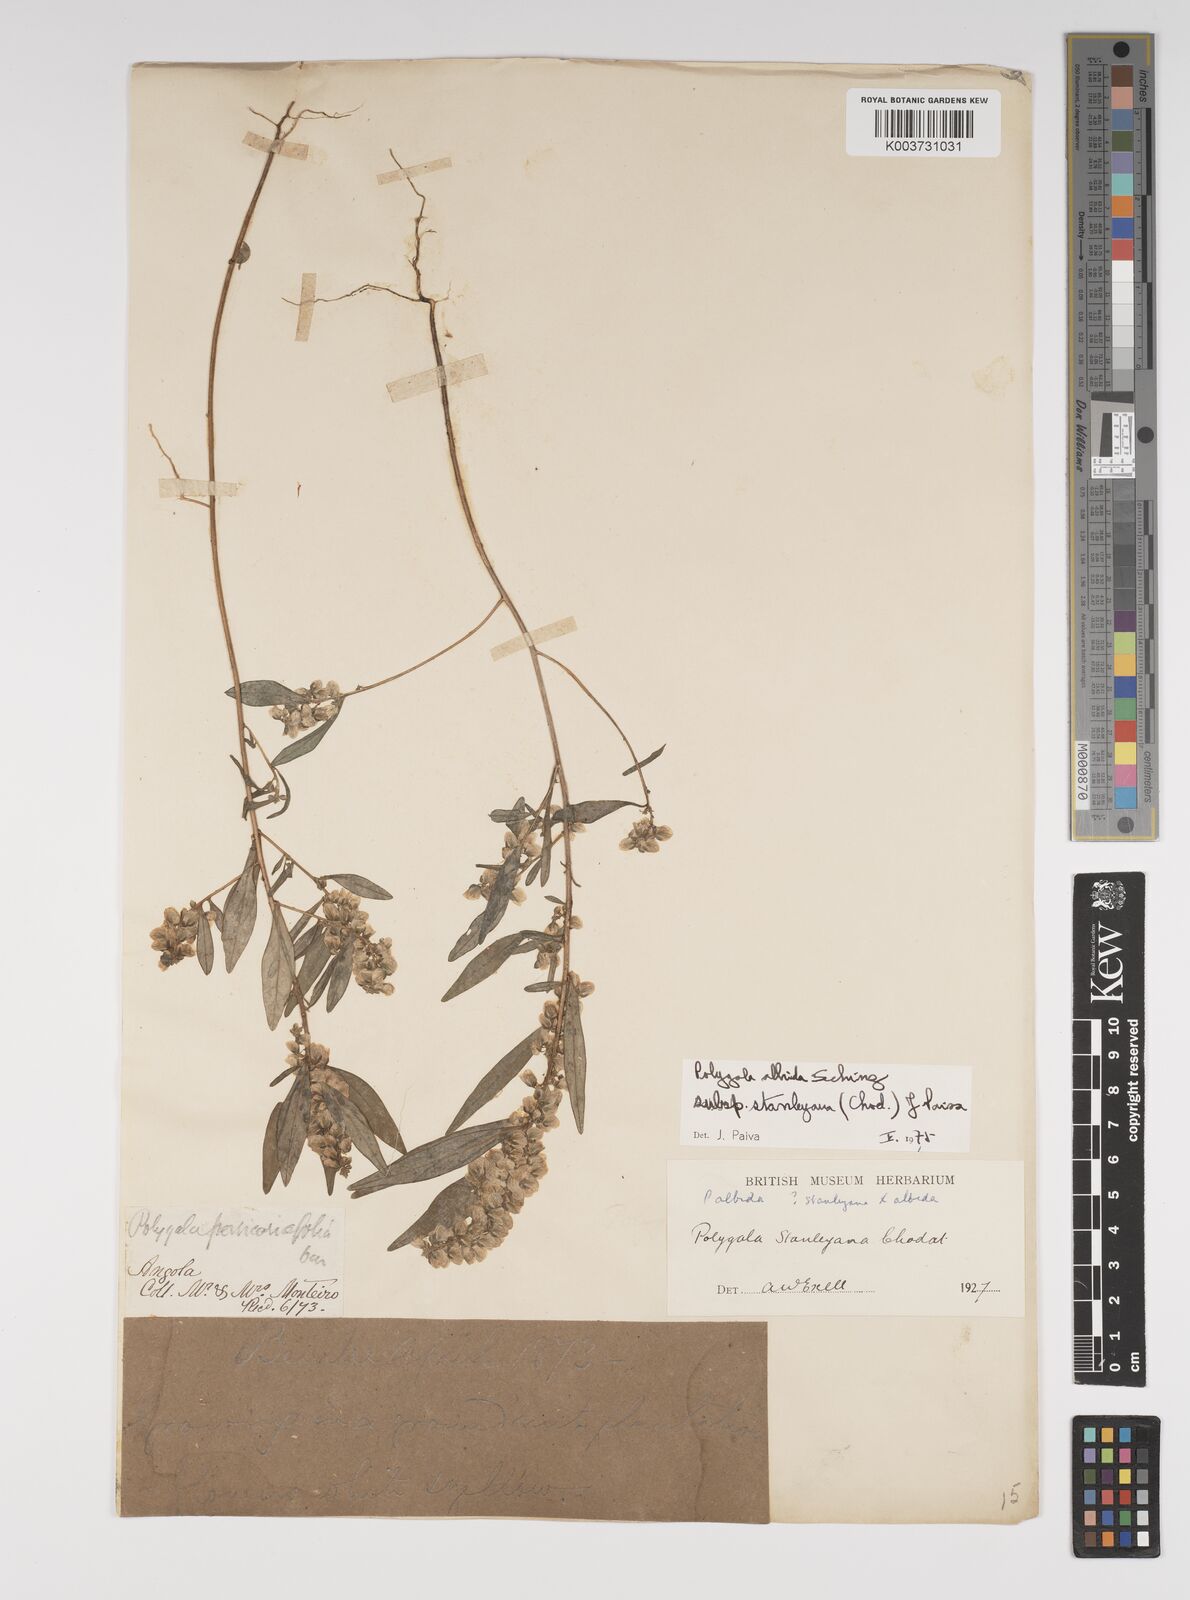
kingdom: Plantae
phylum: Tracheophyta
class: Magnoliopsida
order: Fabales
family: Polygalaceae
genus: Polygala
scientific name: Polygala albida
